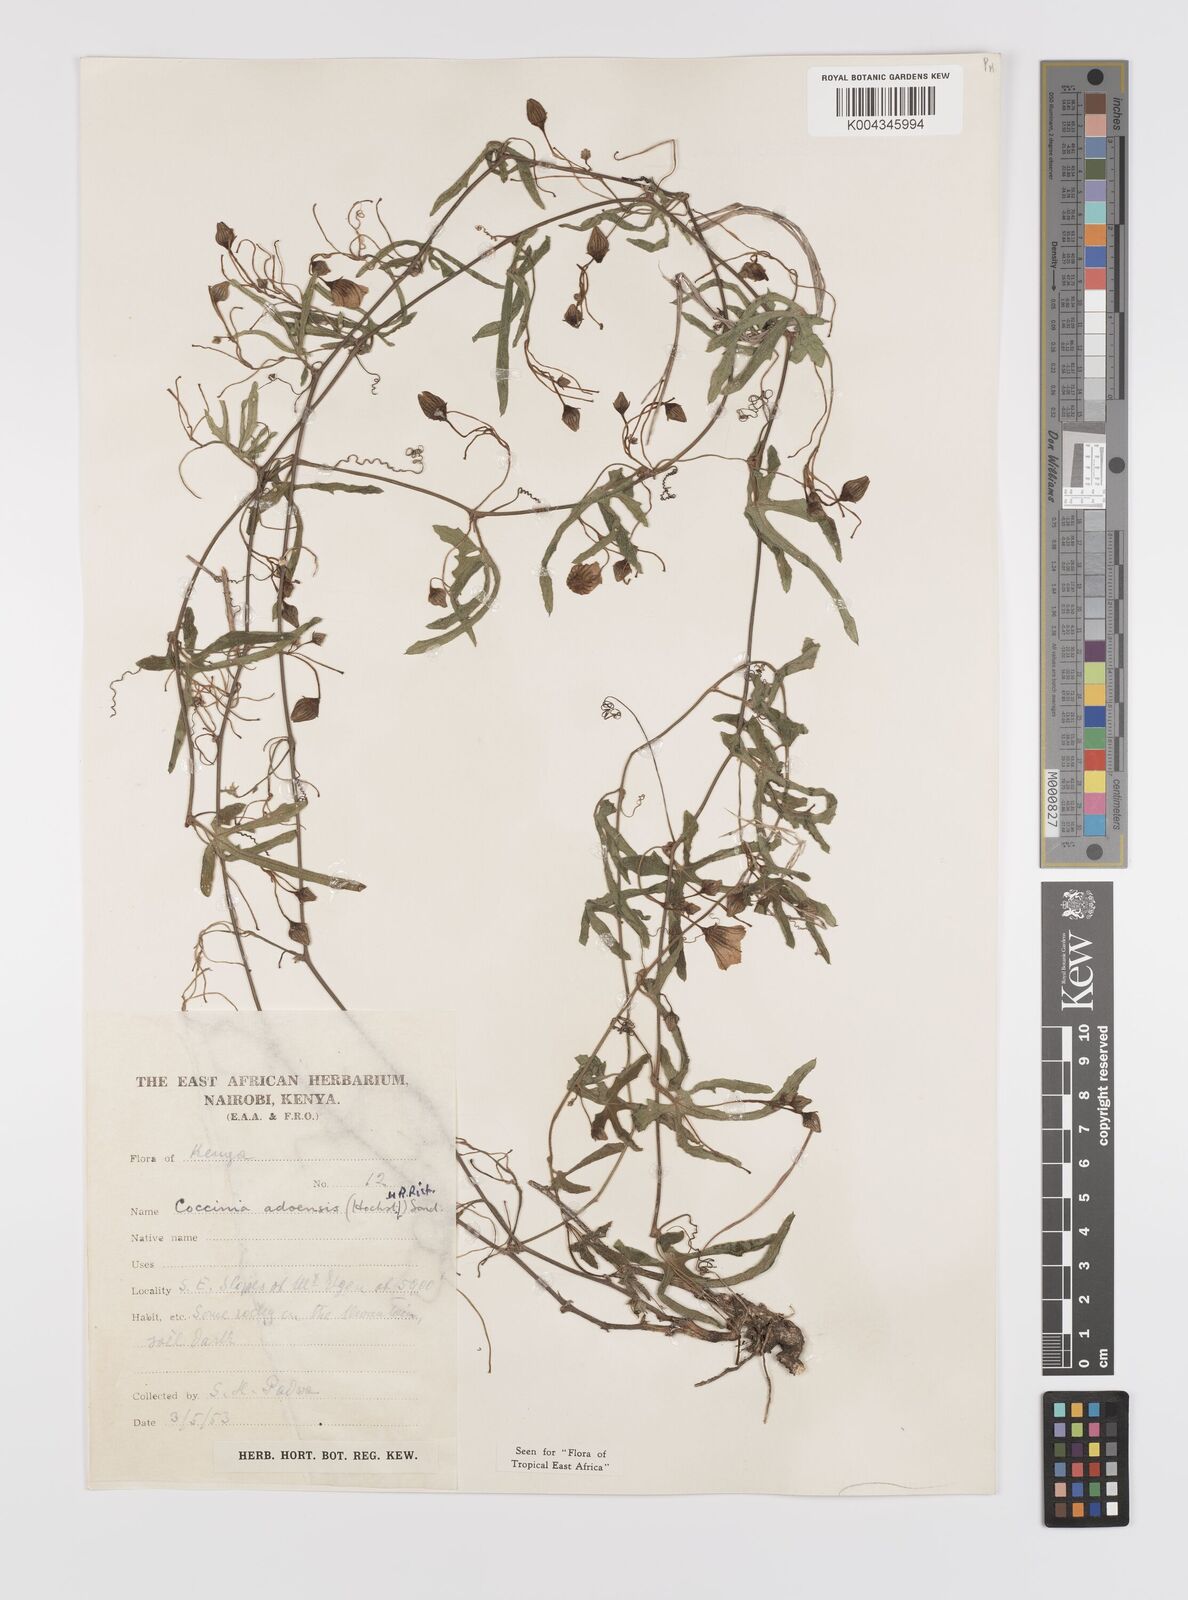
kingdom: Plantae
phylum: Tracheophyta
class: Magnoliopsida
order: Cucurbitales
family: Cucurbitaceae
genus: Coccinia
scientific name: Coccinia adoensis
